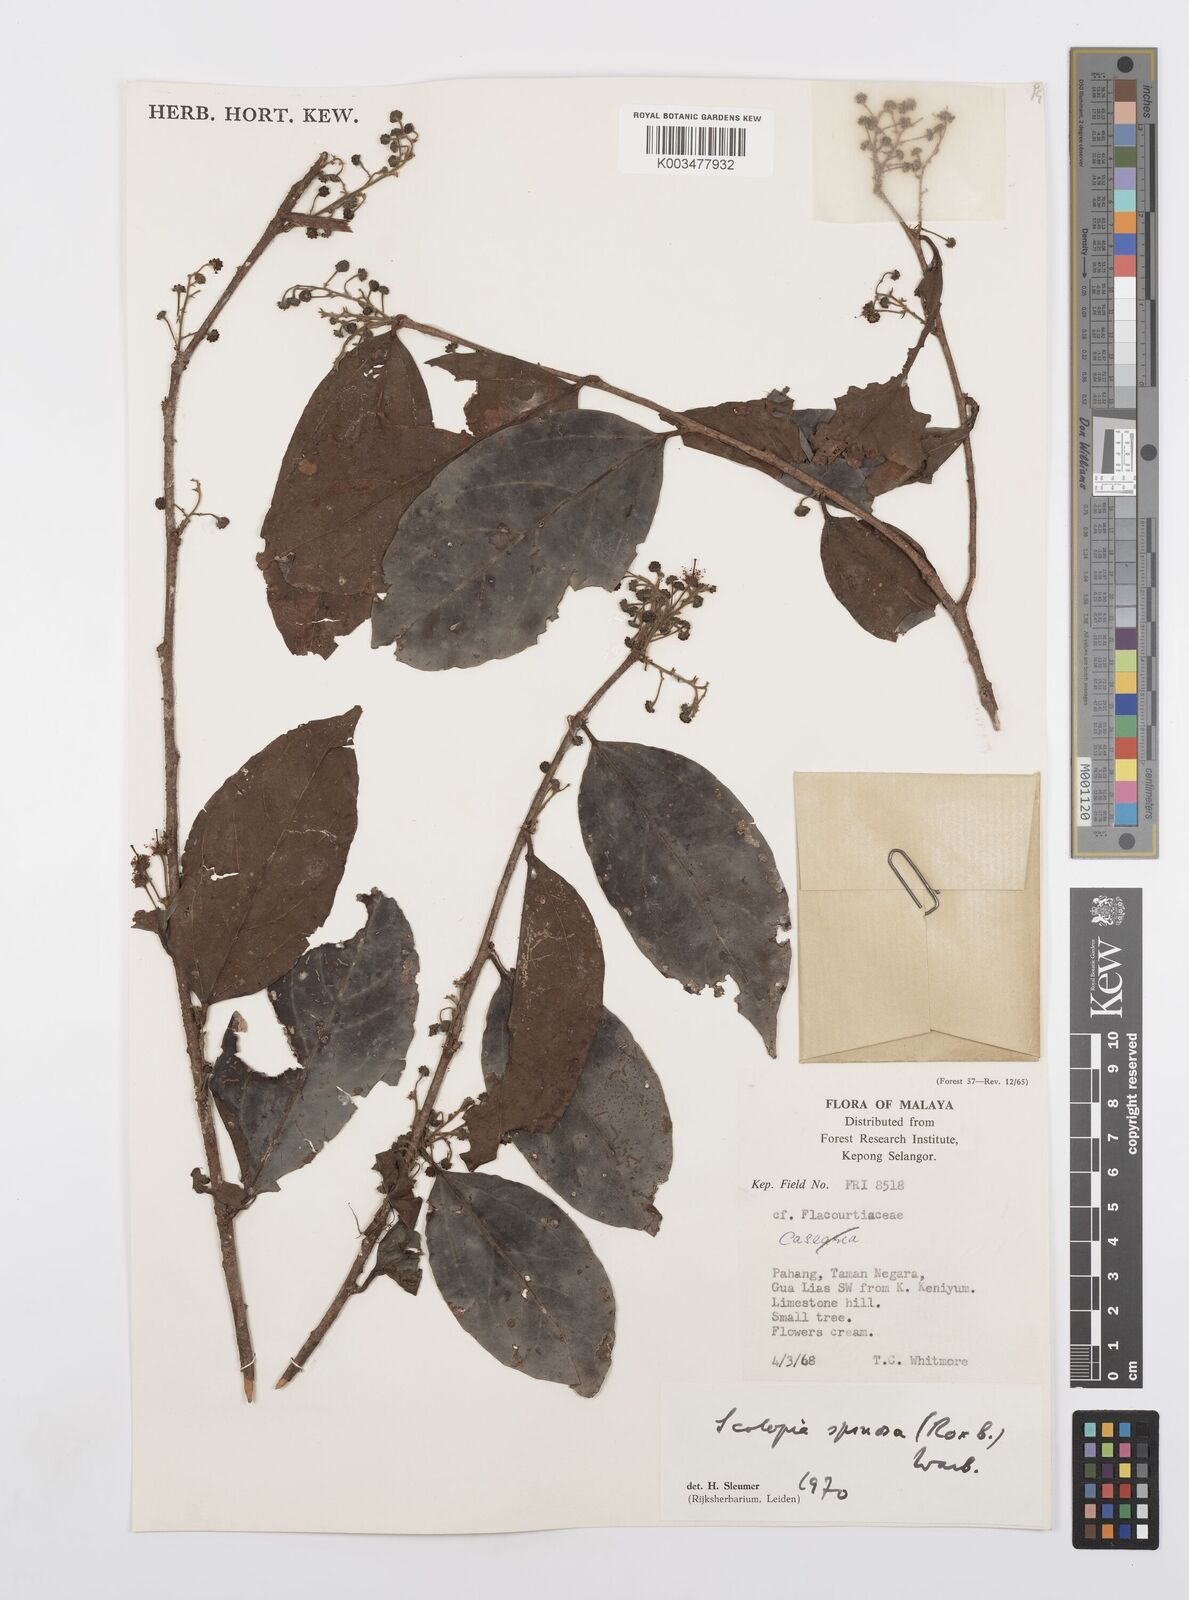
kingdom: Plantae
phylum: Tracheophyta
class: Magnoliopsida
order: Malpighiales
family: Salicaceae
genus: Scolopia
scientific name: Scolopia spinosa
